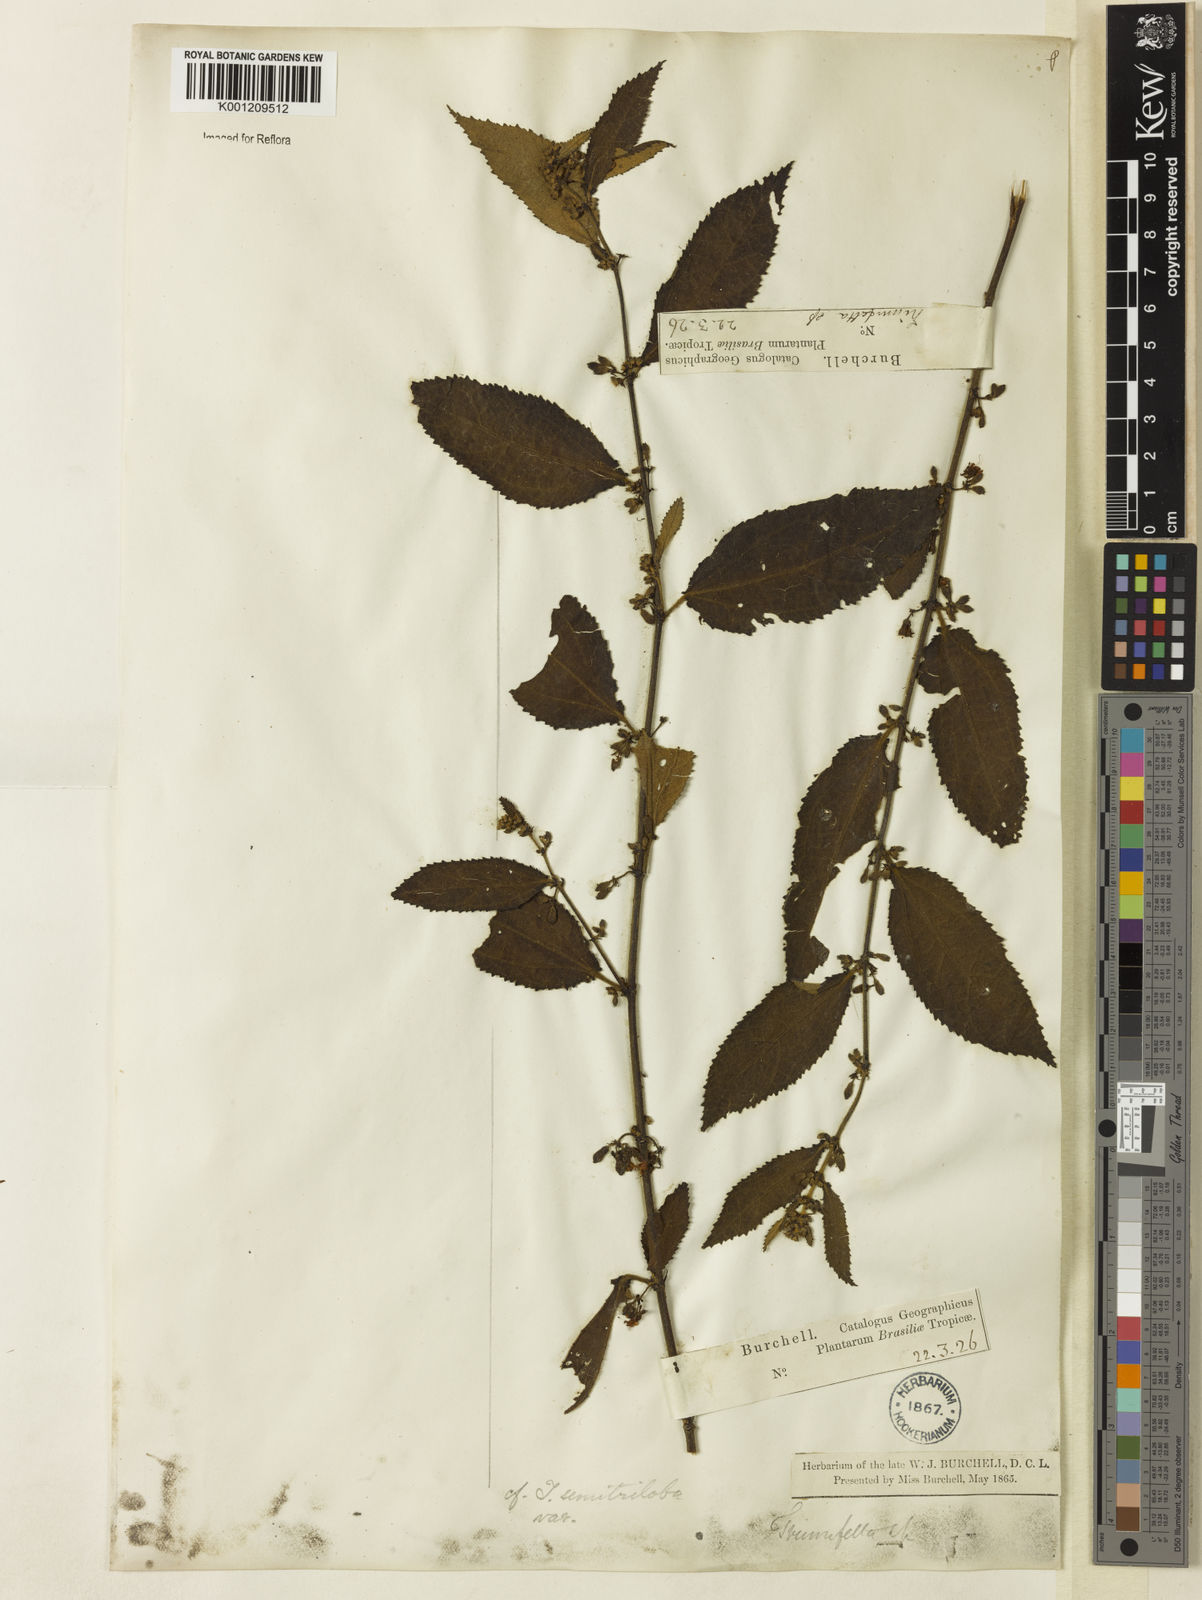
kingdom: Plantae
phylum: Tracheophyta
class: Magnoliopsida
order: Malvales
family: Malvaceae
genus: Triumfetta
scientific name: Triumfetta semitriloba
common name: Sacramento burbark
